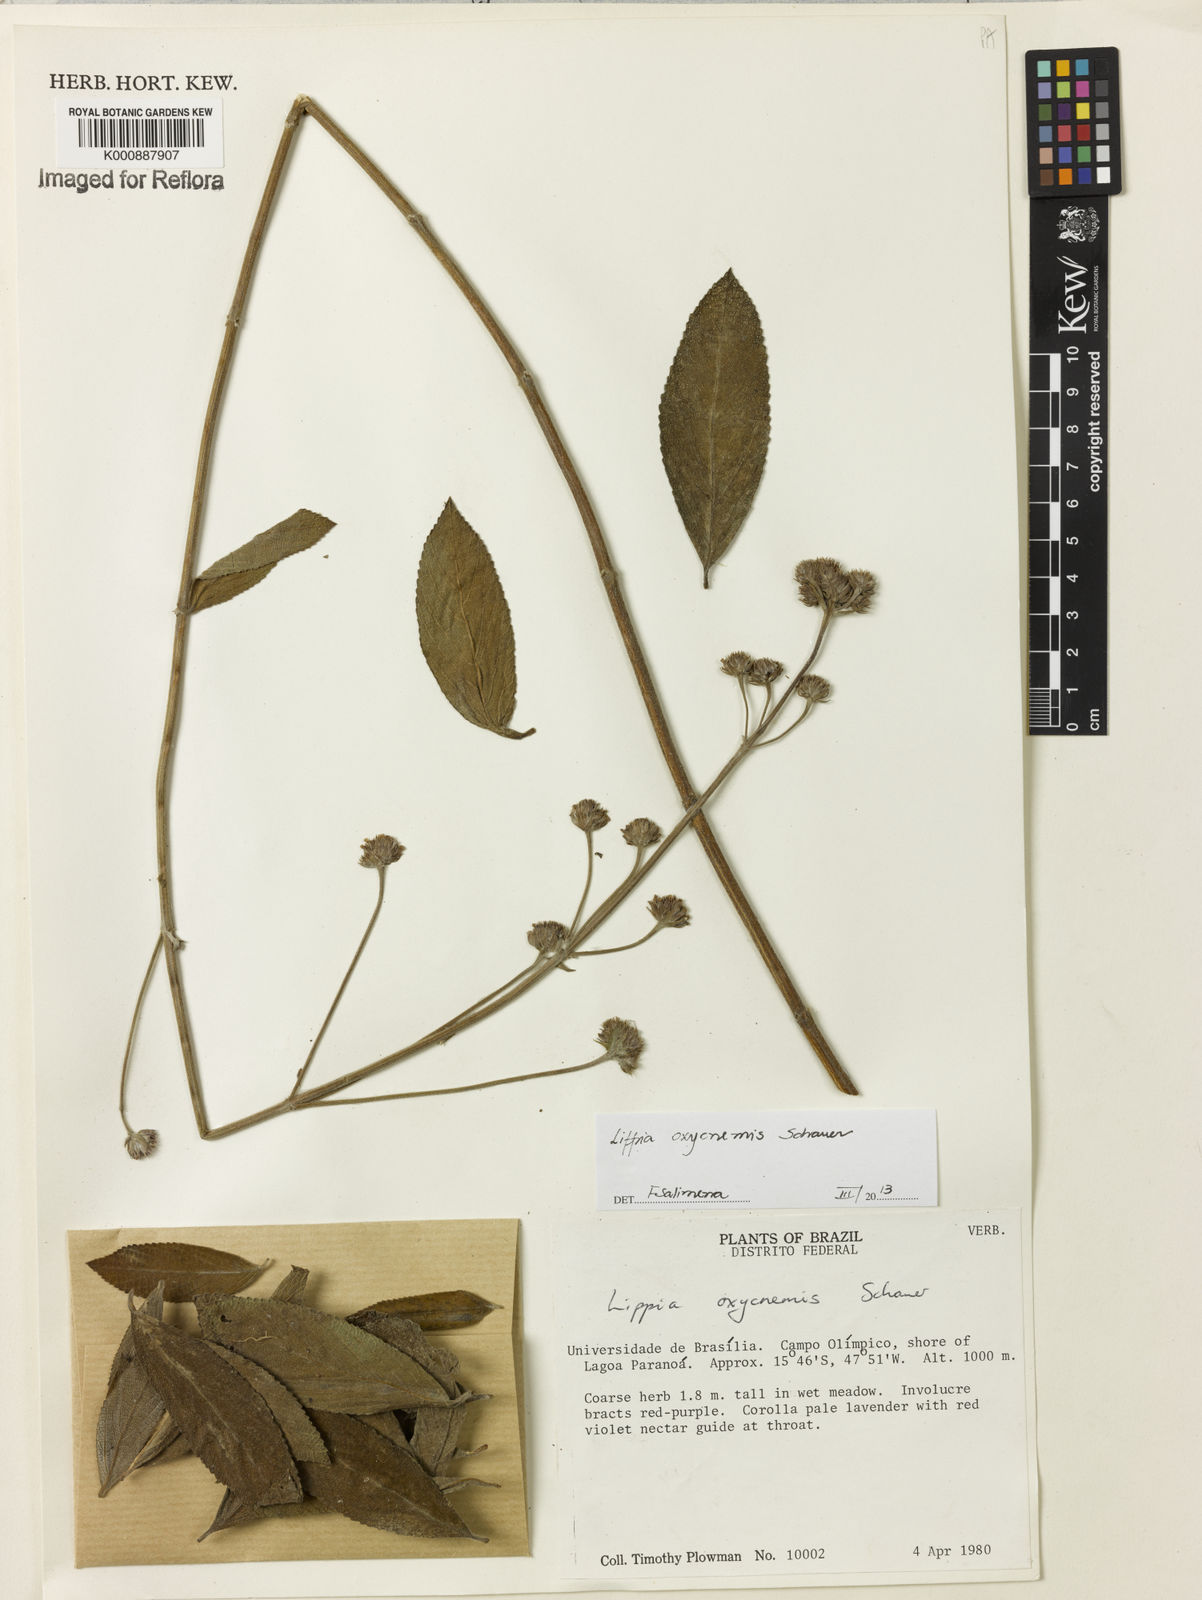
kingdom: Plantae
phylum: Tracheophyta
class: Magnoliopsida
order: Lamiales
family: Verbenaceae
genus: Lippia
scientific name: Lippia oxycnemis
